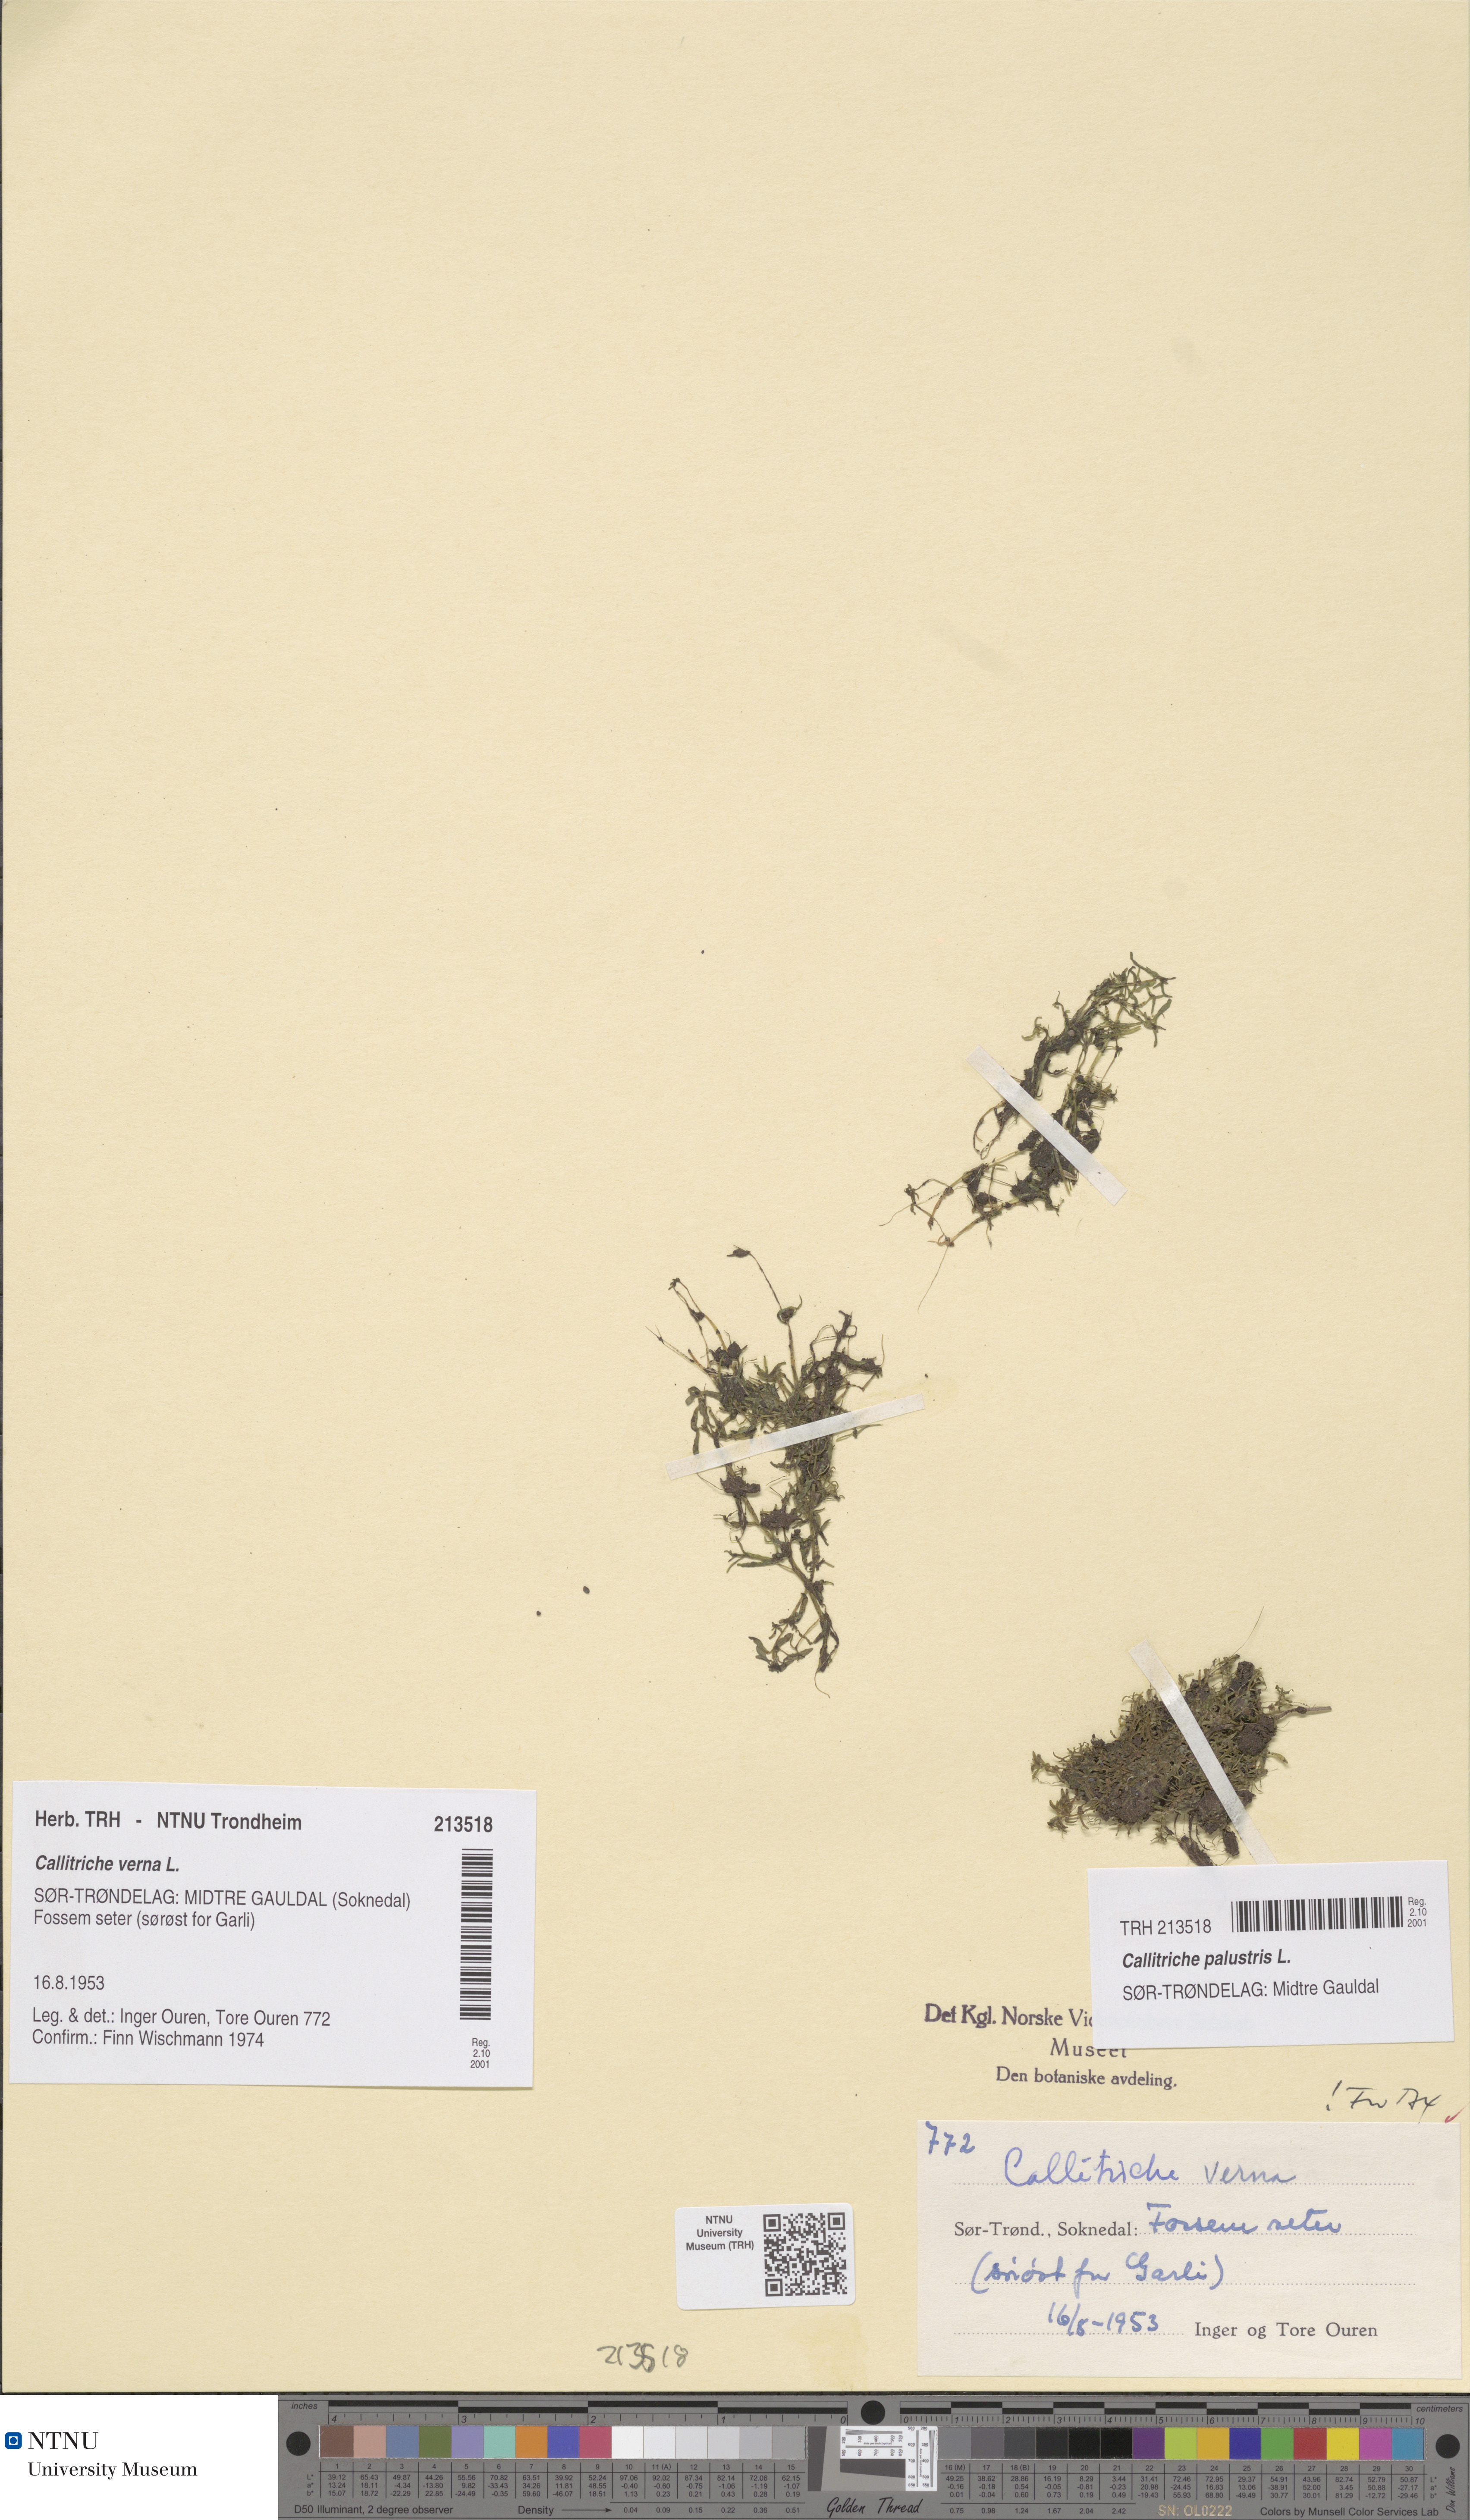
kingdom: Plantae
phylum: Tracheophyta
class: Magnoliopsida
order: Lamiales
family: Plantaginaceae
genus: Callitriche
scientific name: Callitriche palustris
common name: Spring water-starwort
